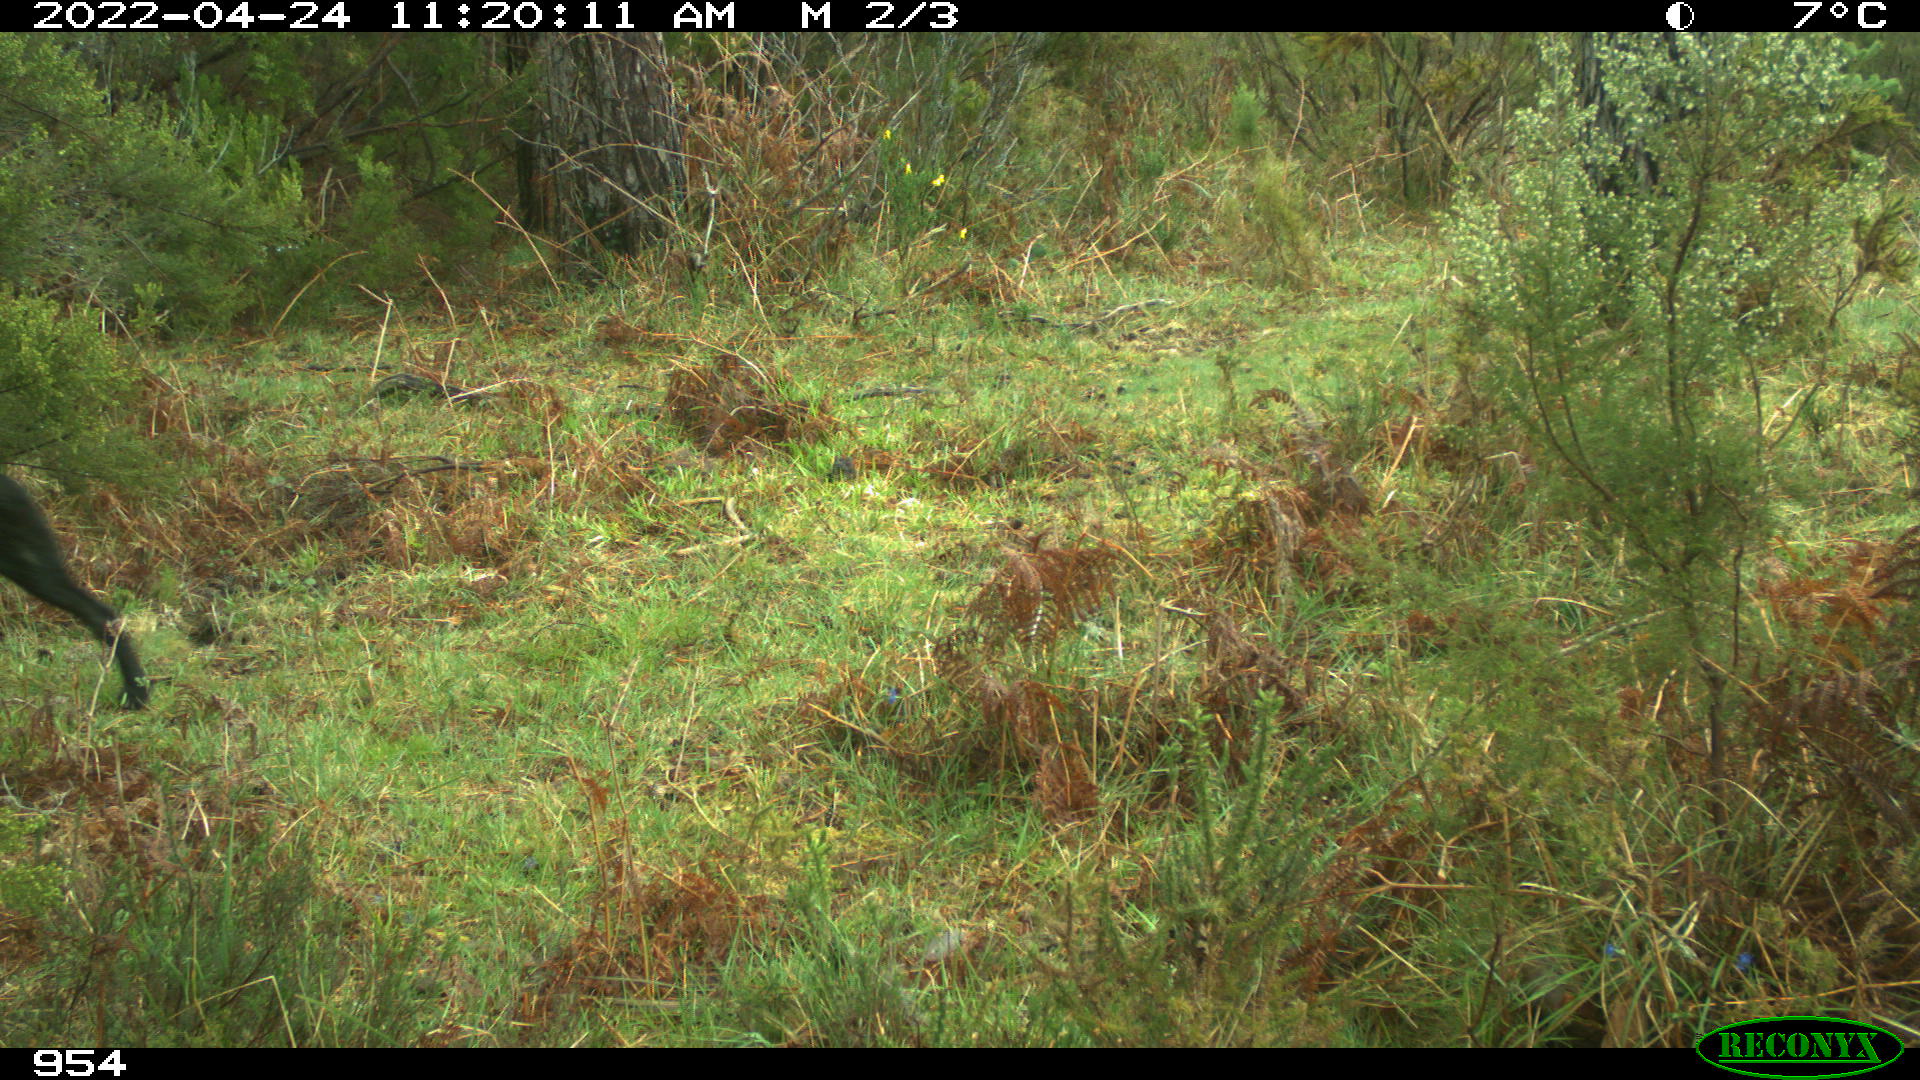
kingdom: Animalia
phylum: Chordata
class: Mammalia
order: Carnivora
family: Canidae
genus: Canis
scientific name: Canis lupus
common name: Gray wolf
